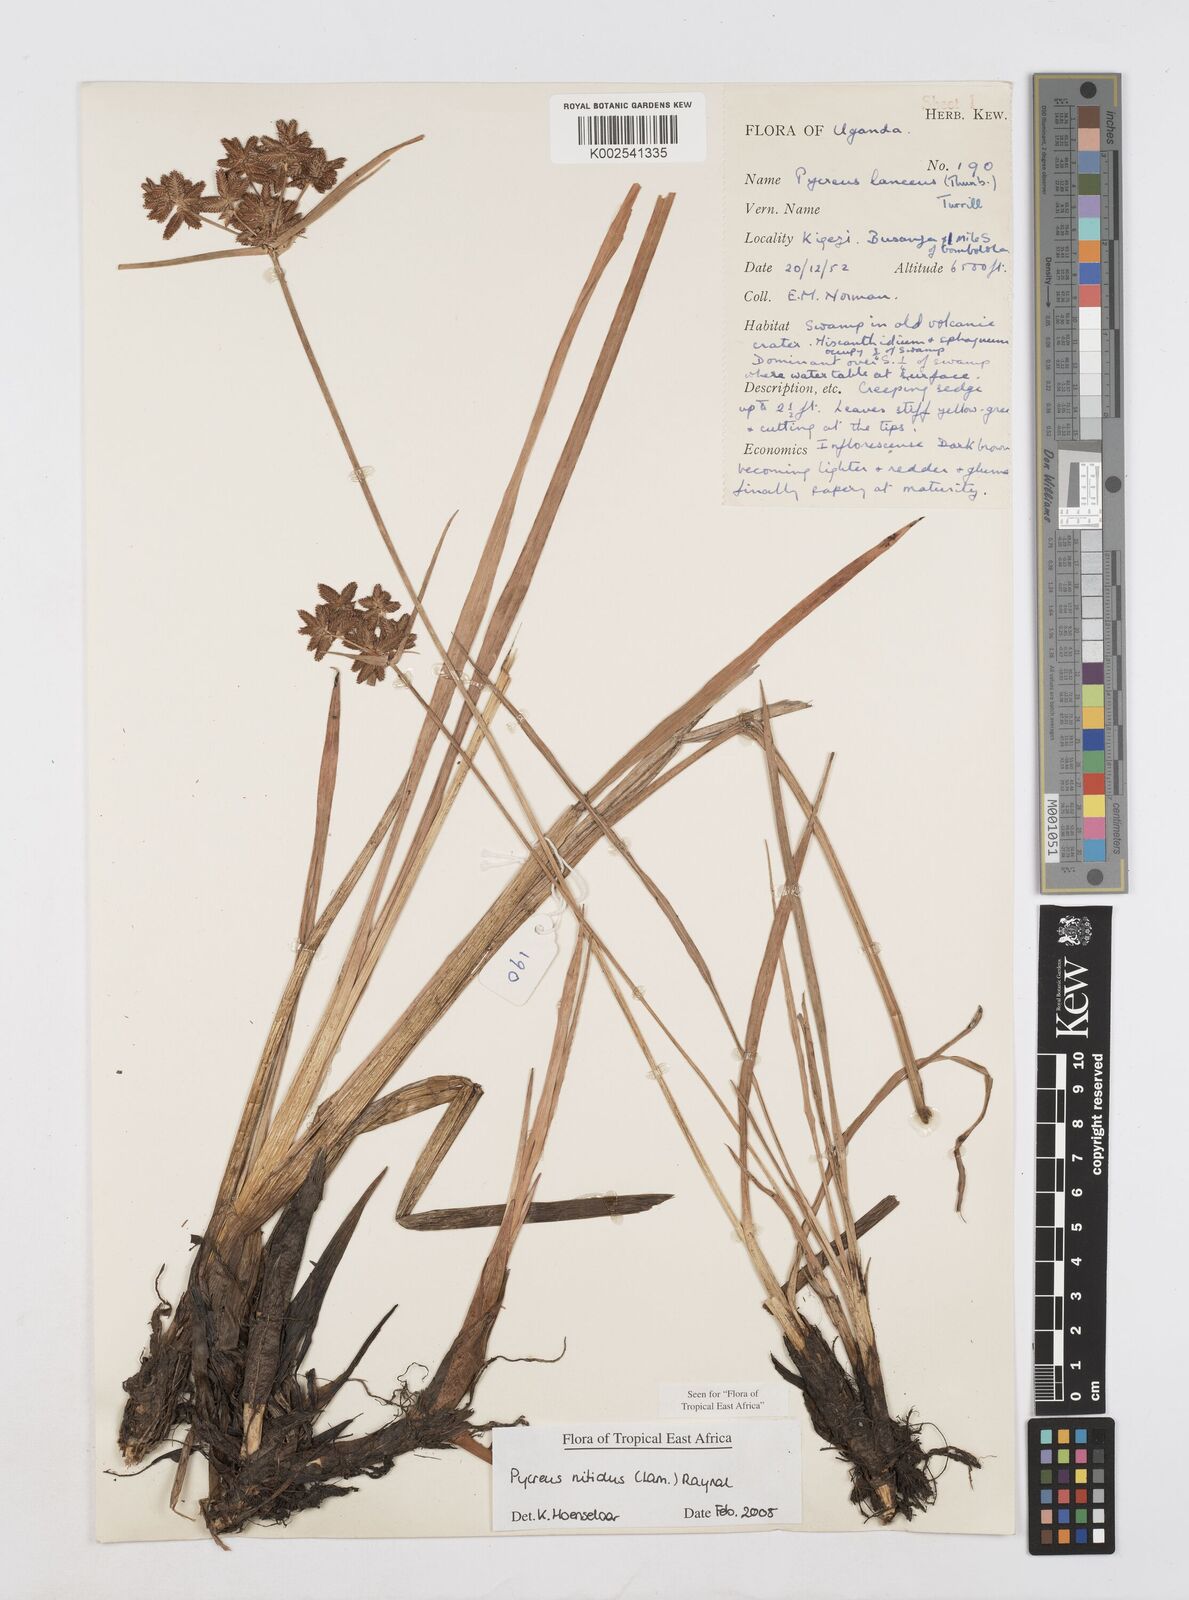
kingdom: Plantae
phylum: Tracheophyta
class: Liliopsida
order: Poales
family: Cyperaceae
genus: Cyperus
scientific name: Cyperus nitidus
